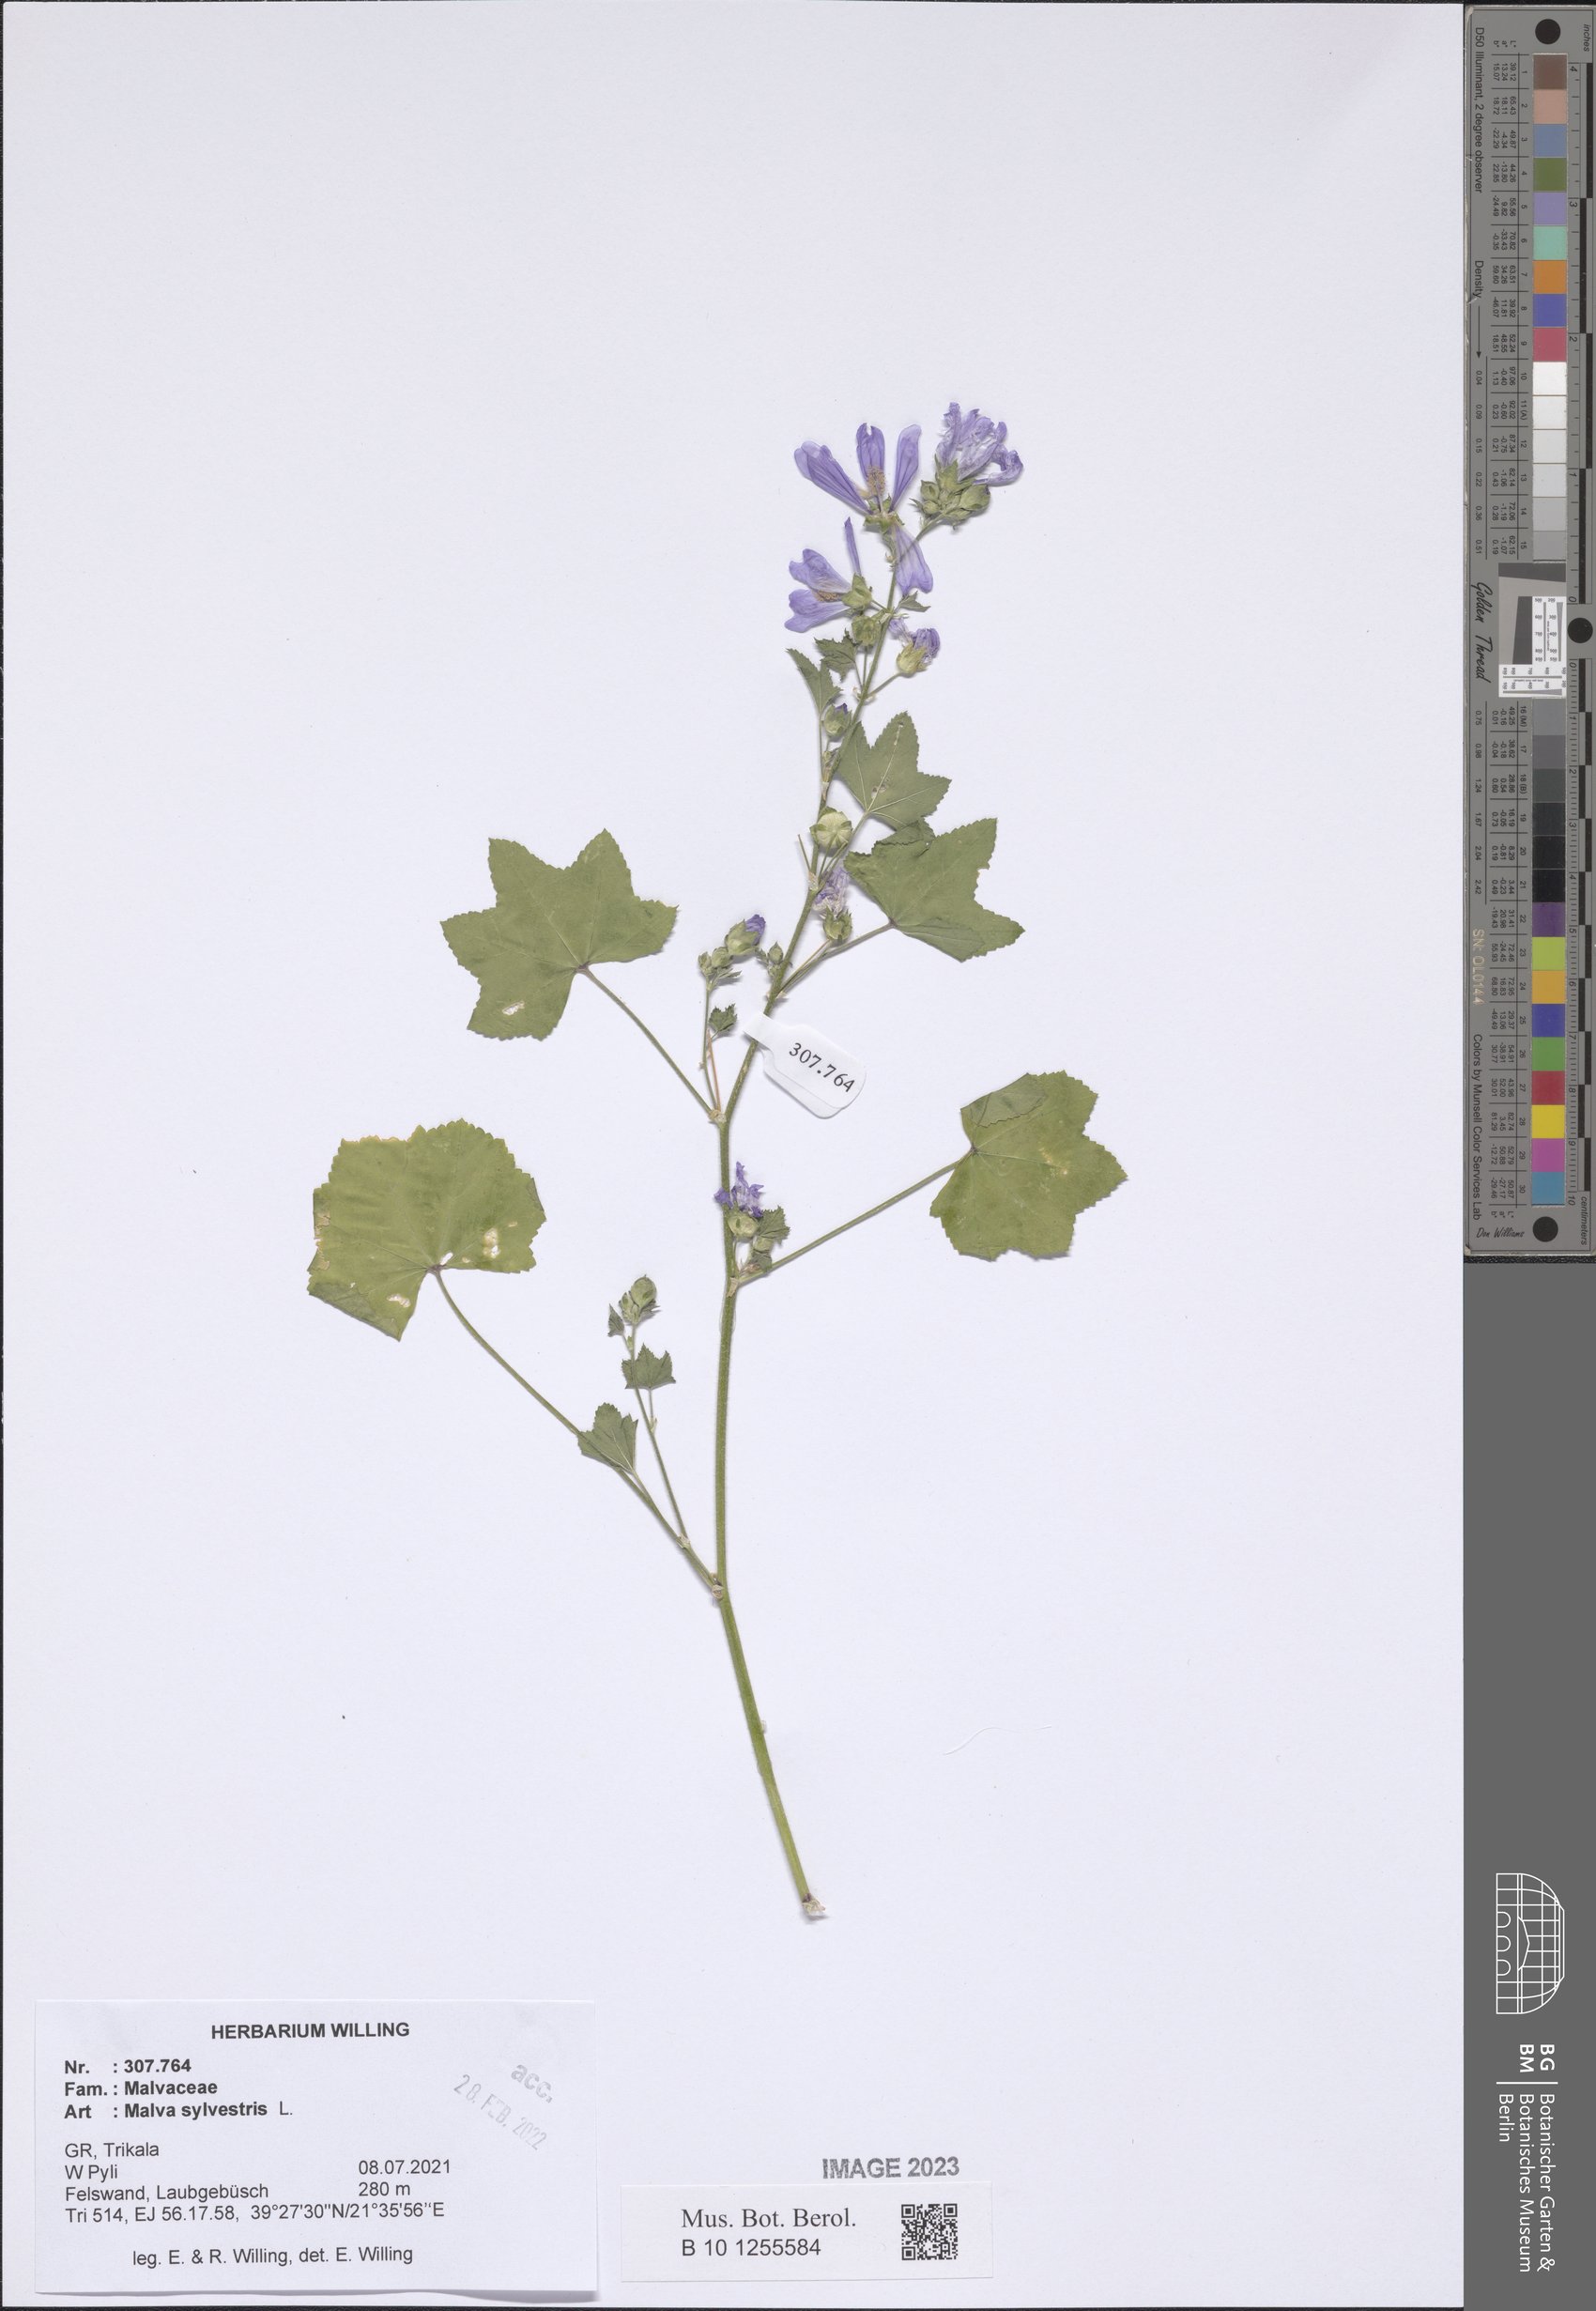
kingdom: Plantae
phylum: Tracheophyta
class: Magnoliopsida
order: Malvales
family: Malvaceae
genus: Malva
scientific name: Malva sylvestris
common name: Common mallow
